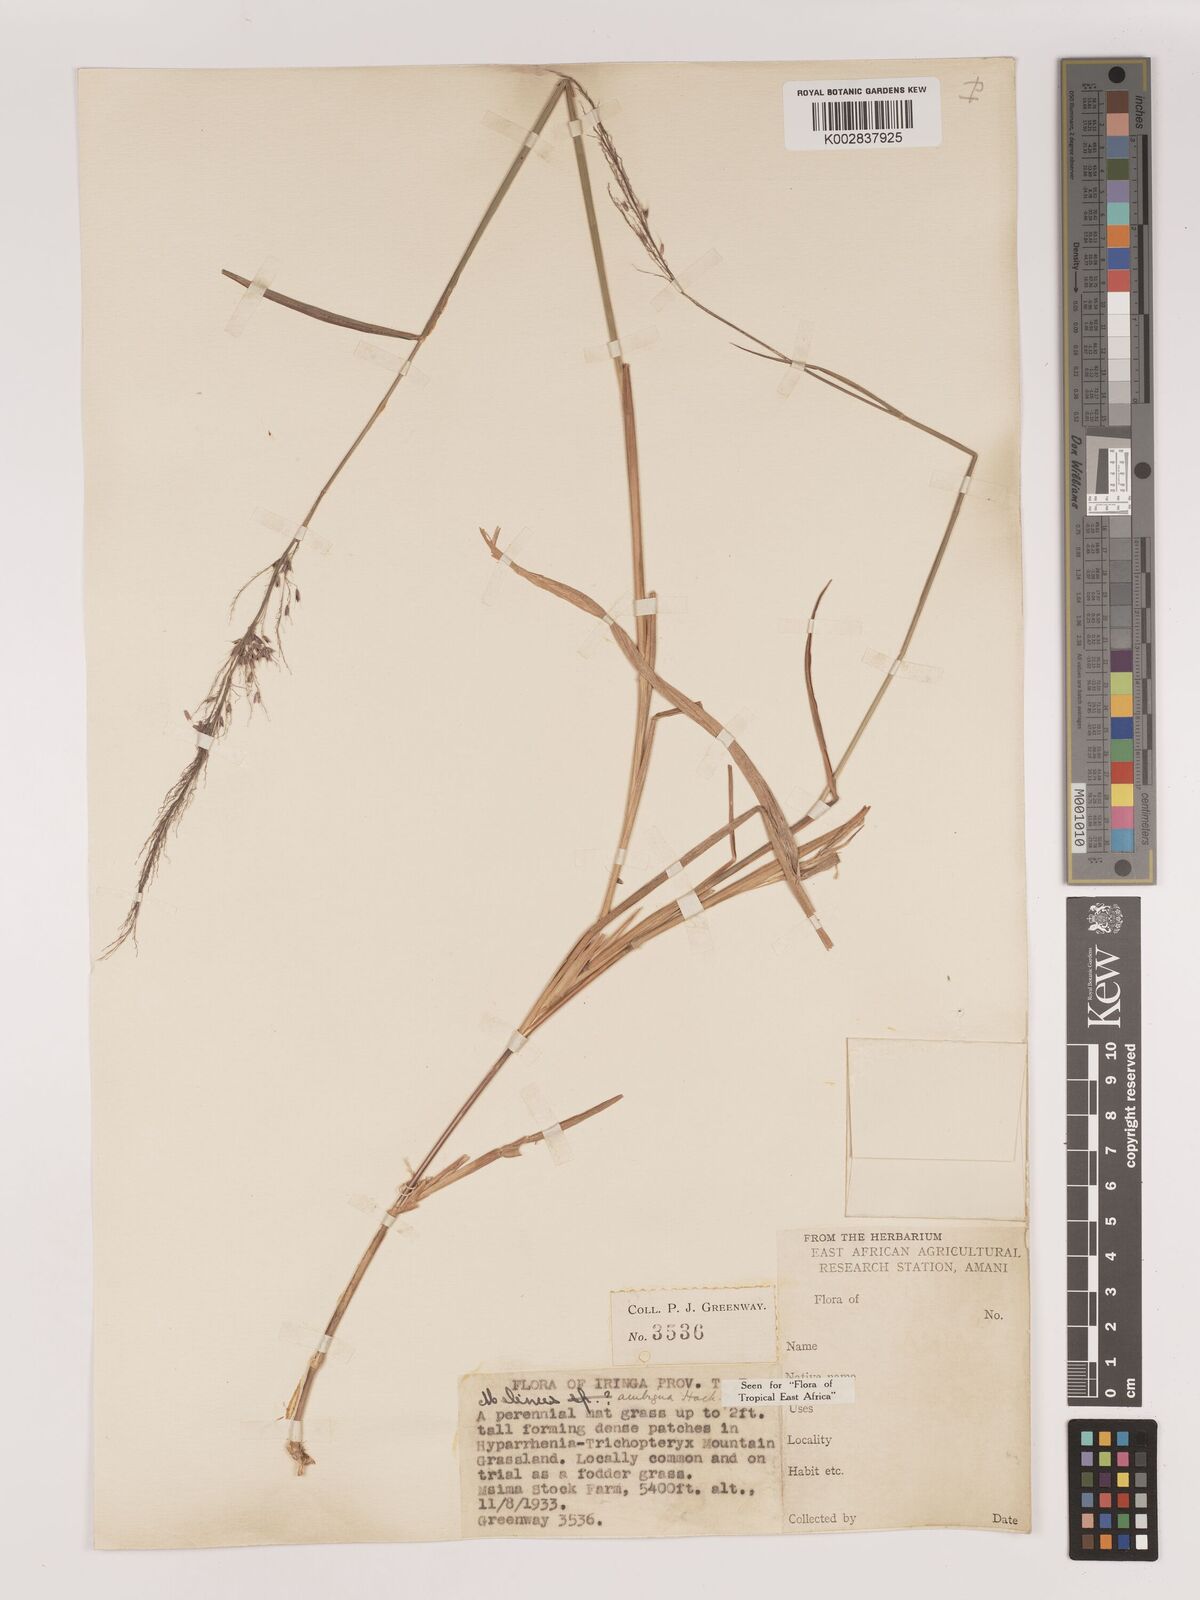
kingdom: Plantae
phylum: Tracheophyta
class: Liliopsida
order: Poales
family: Poaceae
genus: Melinis
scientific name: Melinis ambigua
